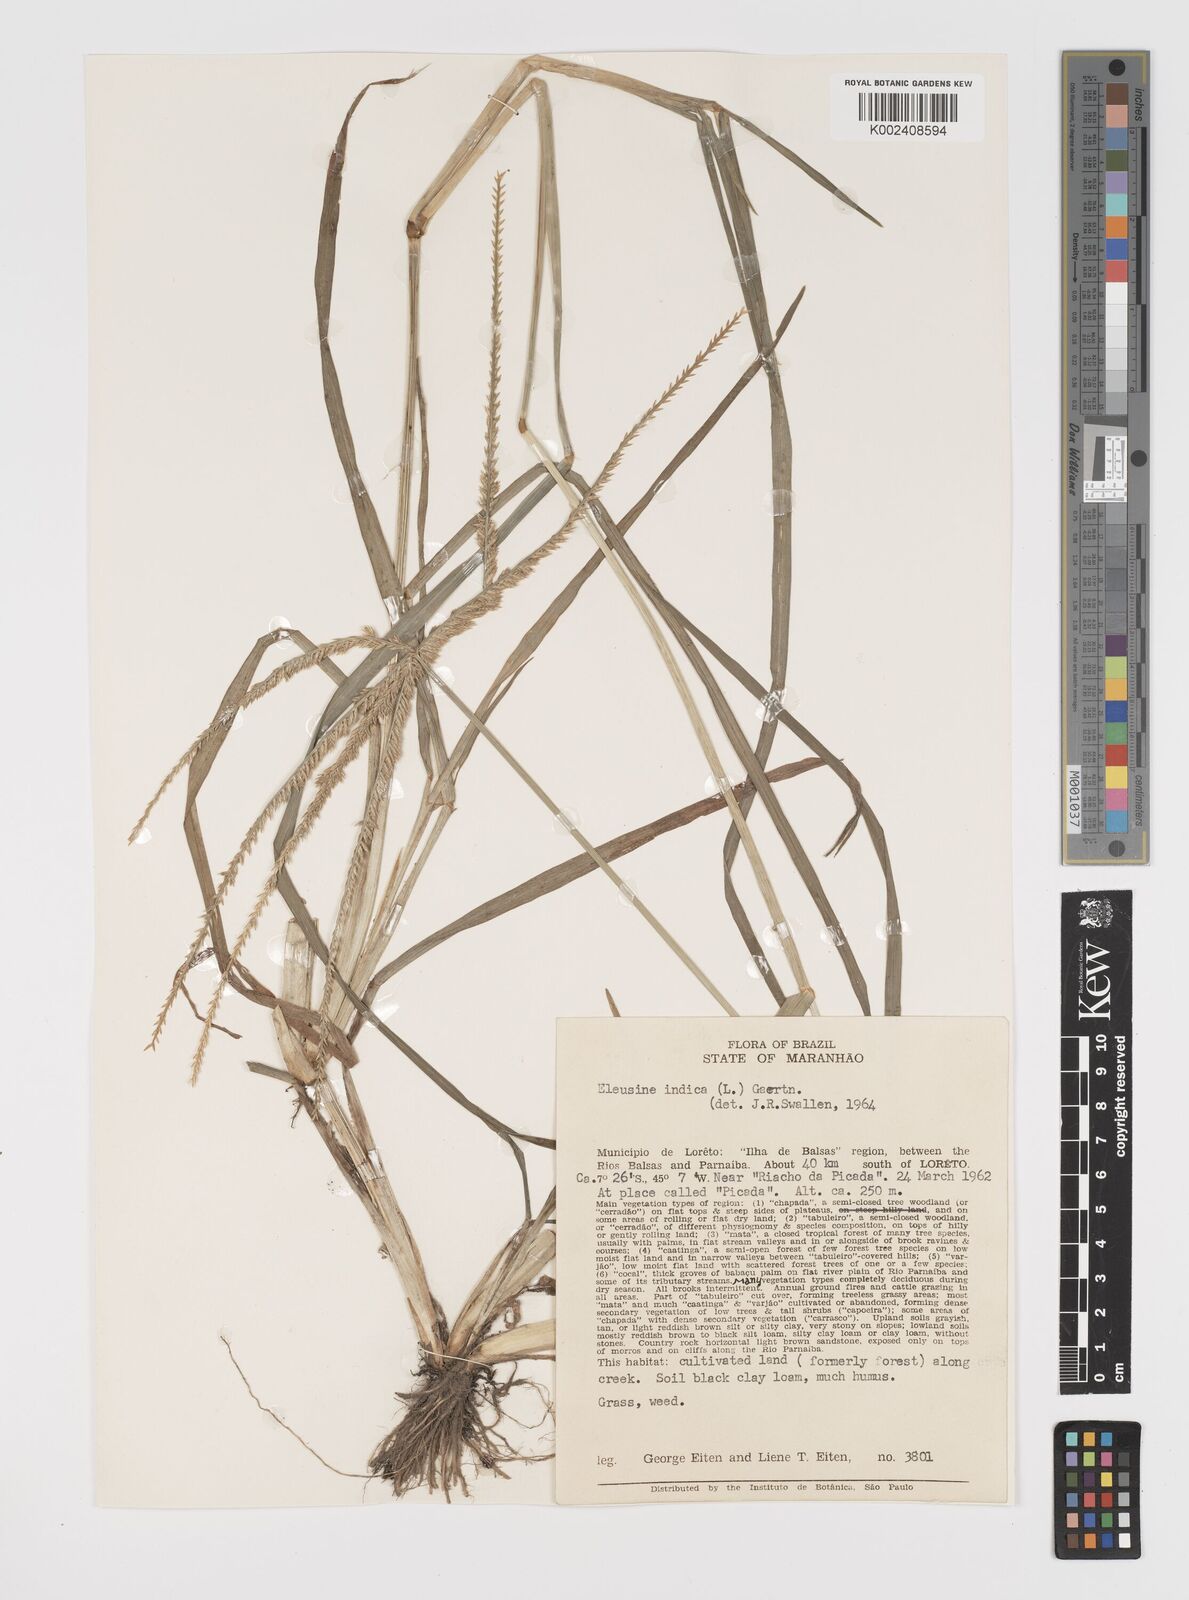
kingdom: Plantae
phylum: Tracheophyta
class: Liliopsida
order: Poales
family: Poaceae
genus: Eleusine
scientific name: Eleusine indica
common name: Yard-grass
